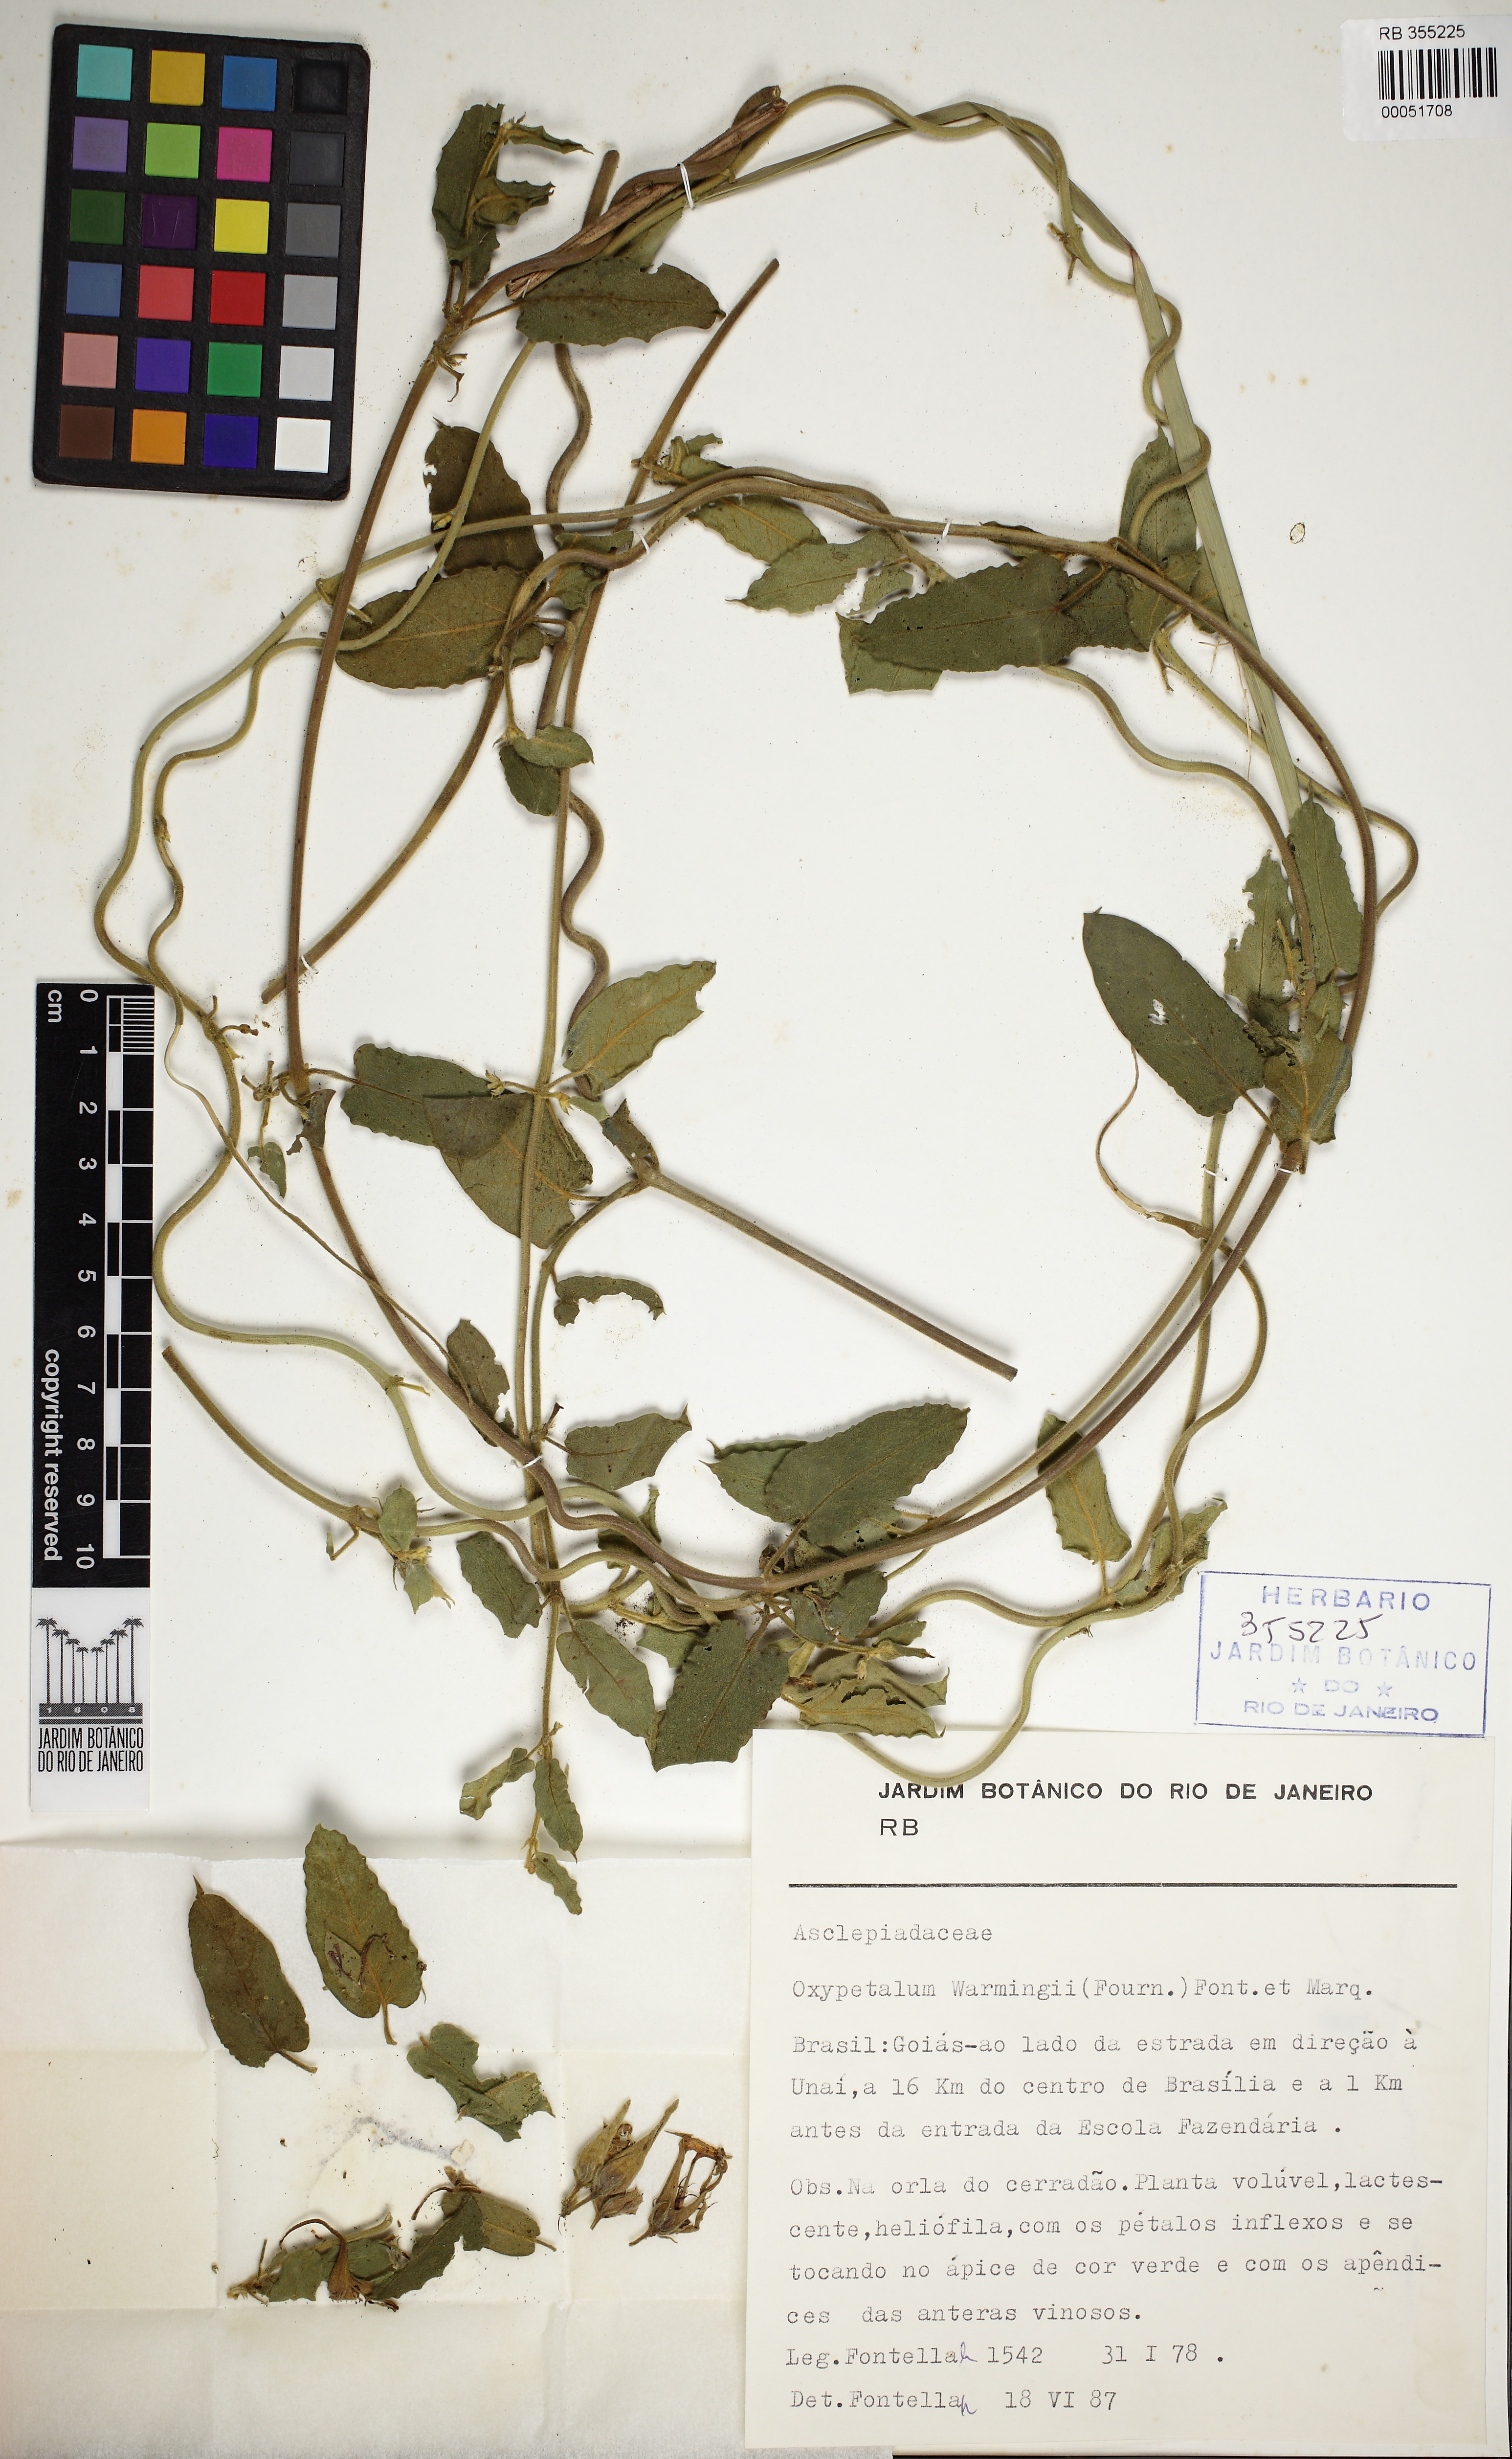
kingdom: Plantae
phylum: Tracheophyta
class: Magnoliopsida
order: Gentianales
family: Apocynaceae
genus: Oxypetalum
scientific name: Oxypetalum warmingii
